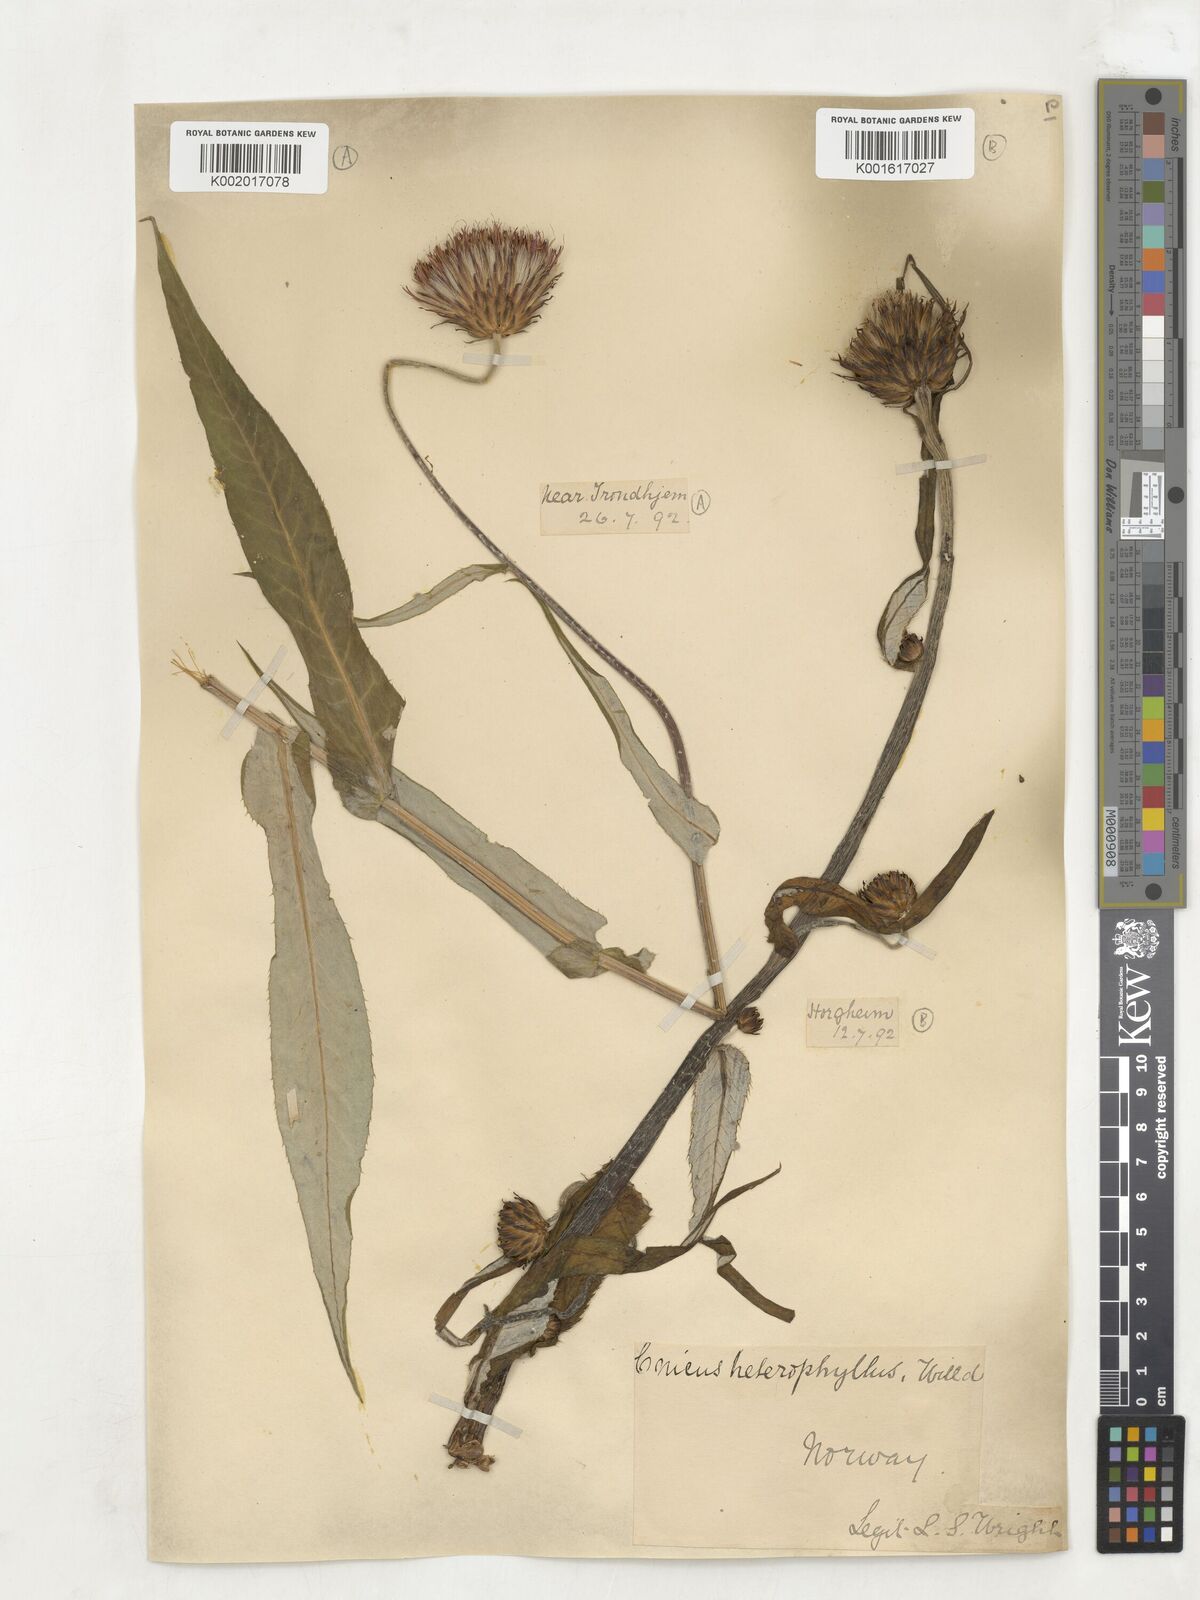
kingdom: Plantae
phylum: Tracheophyta
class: Magnoliopsida
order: Asterales
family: Asteraceae
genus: Cirsium
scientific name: Cirsium heterophyllum
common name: Melancholy thistle
